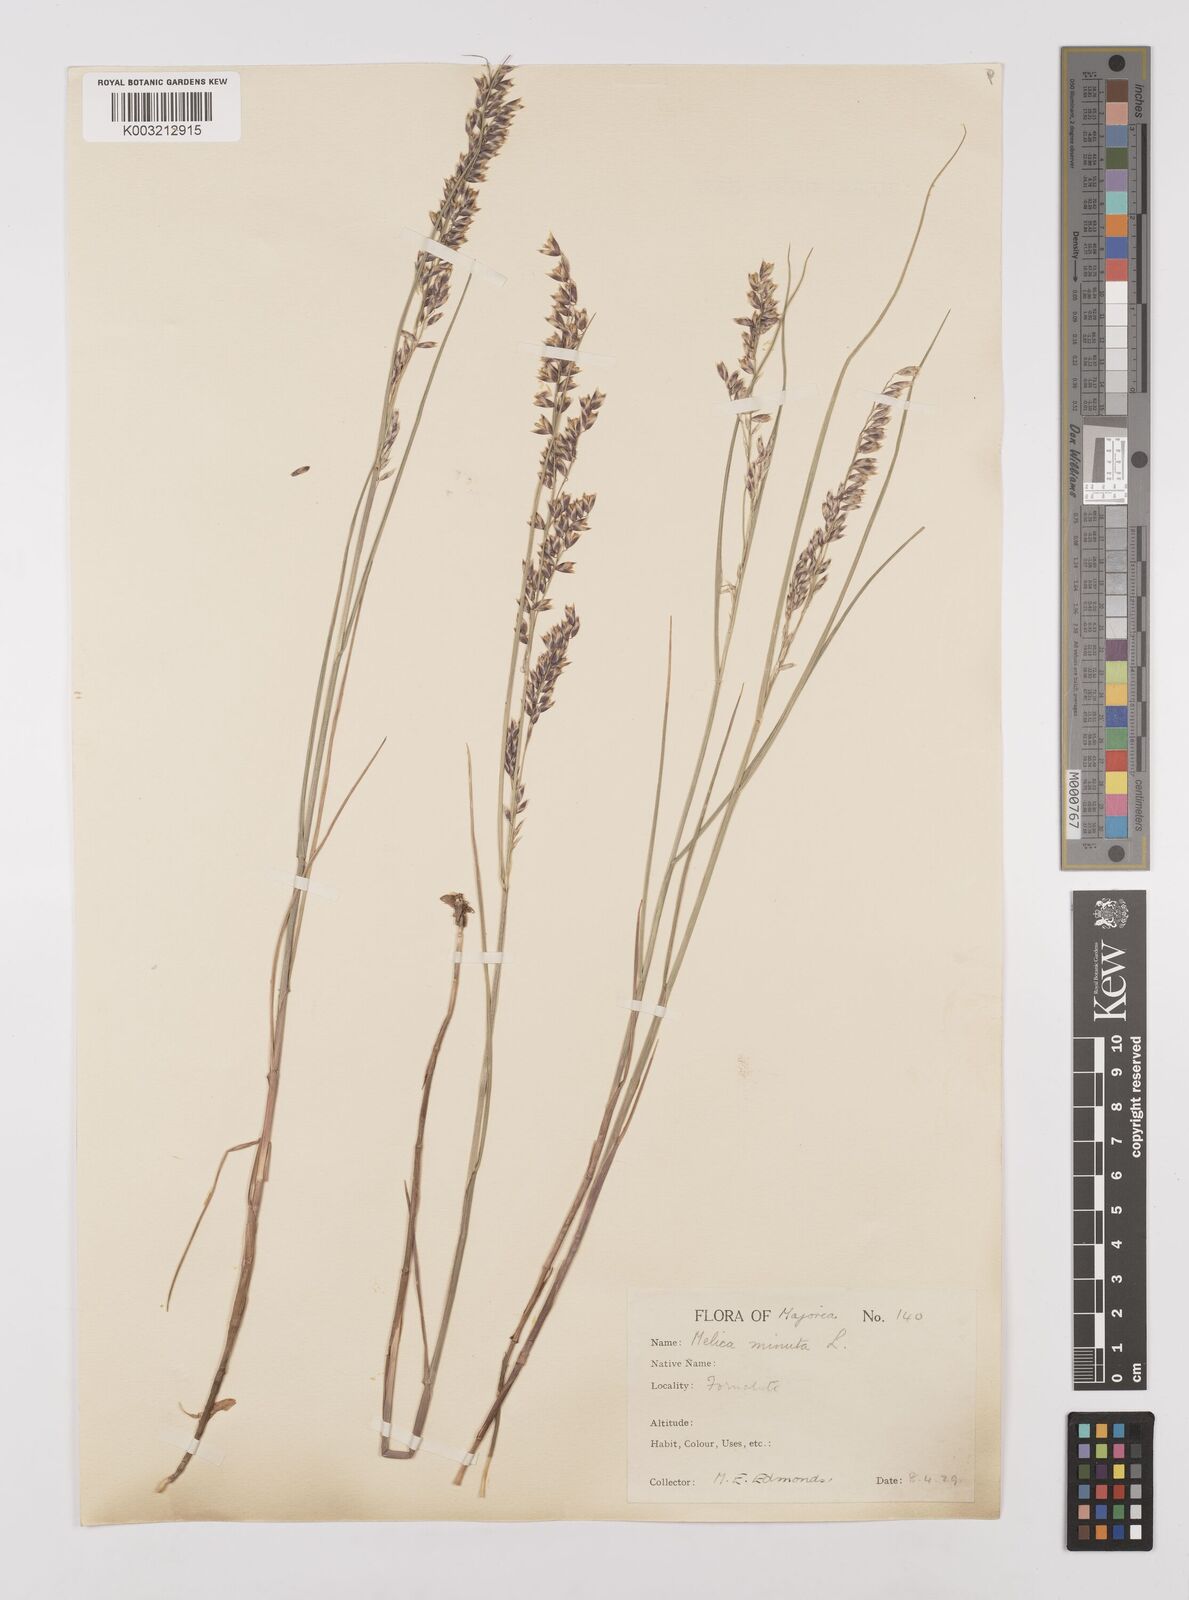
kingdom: Plantae
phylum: Tracheophyta
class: Liliopsida
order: Poales
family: Poaceae
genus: Melica
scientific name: Melica minuta
